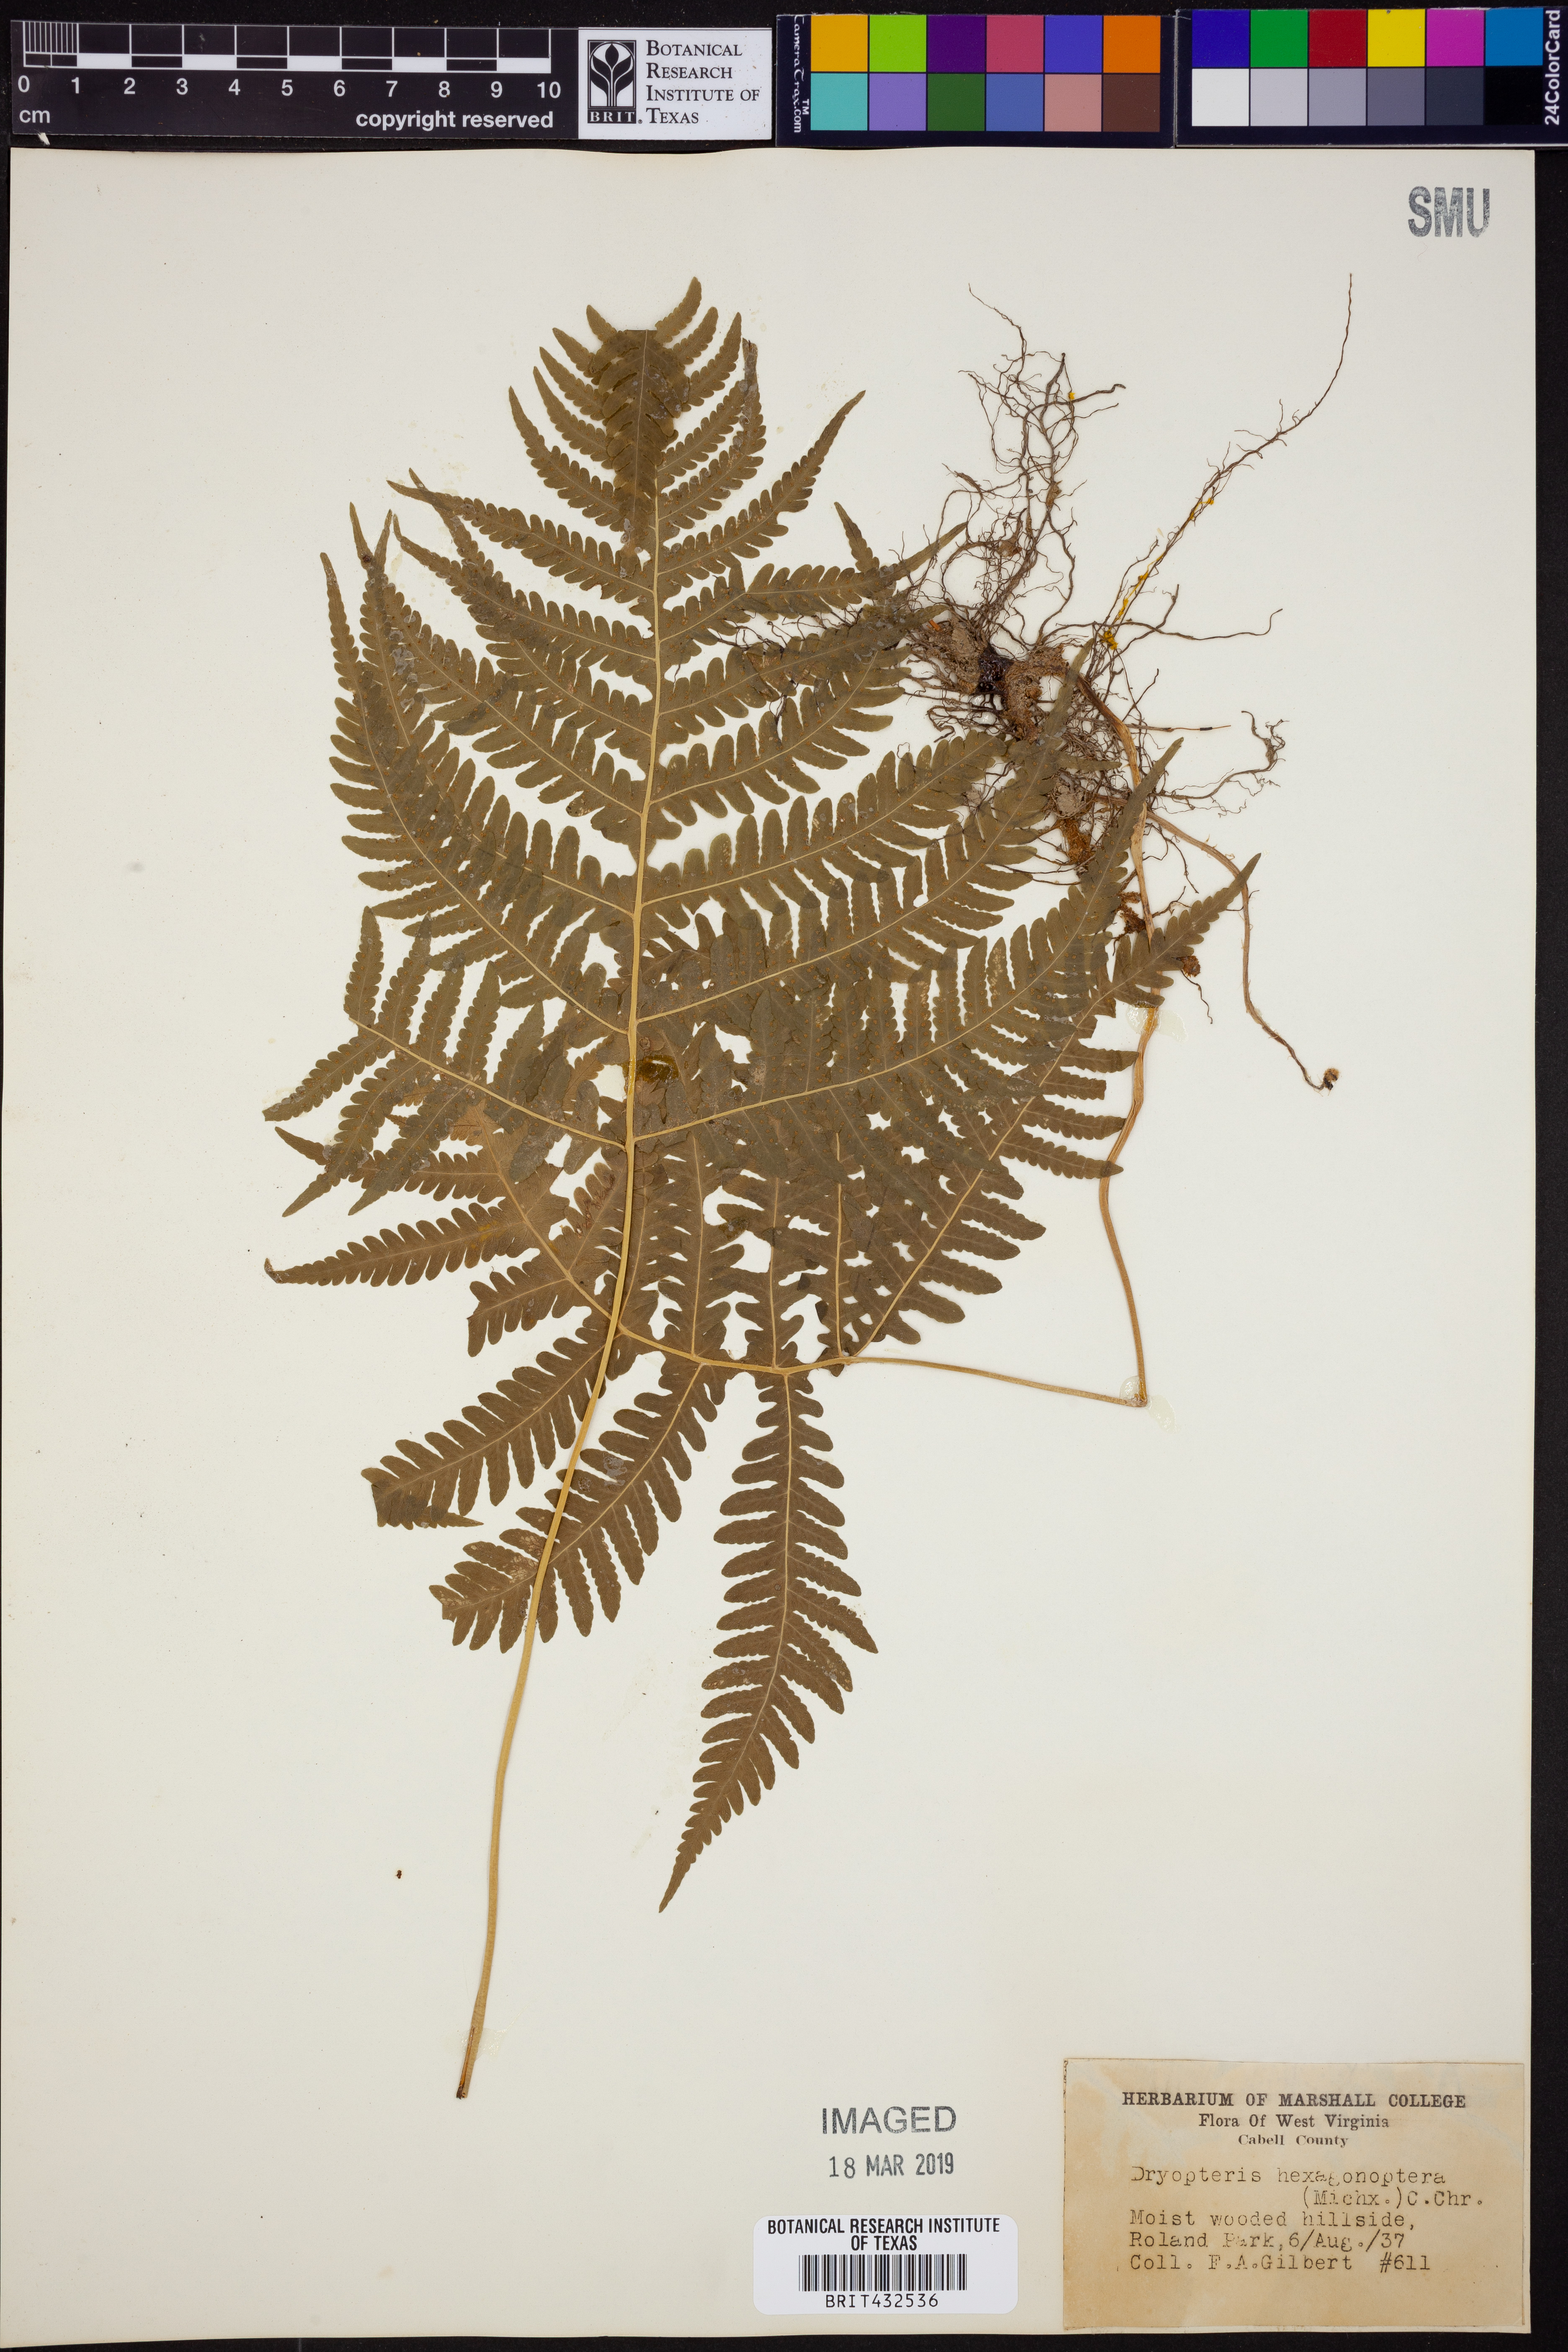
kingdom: Plantae
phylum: Tracheophyta
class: Polypodiopsida
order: Polypodiales
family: Dryopteridaceae
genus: Dryopteris
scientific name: Dryopteris hexagonaptera
